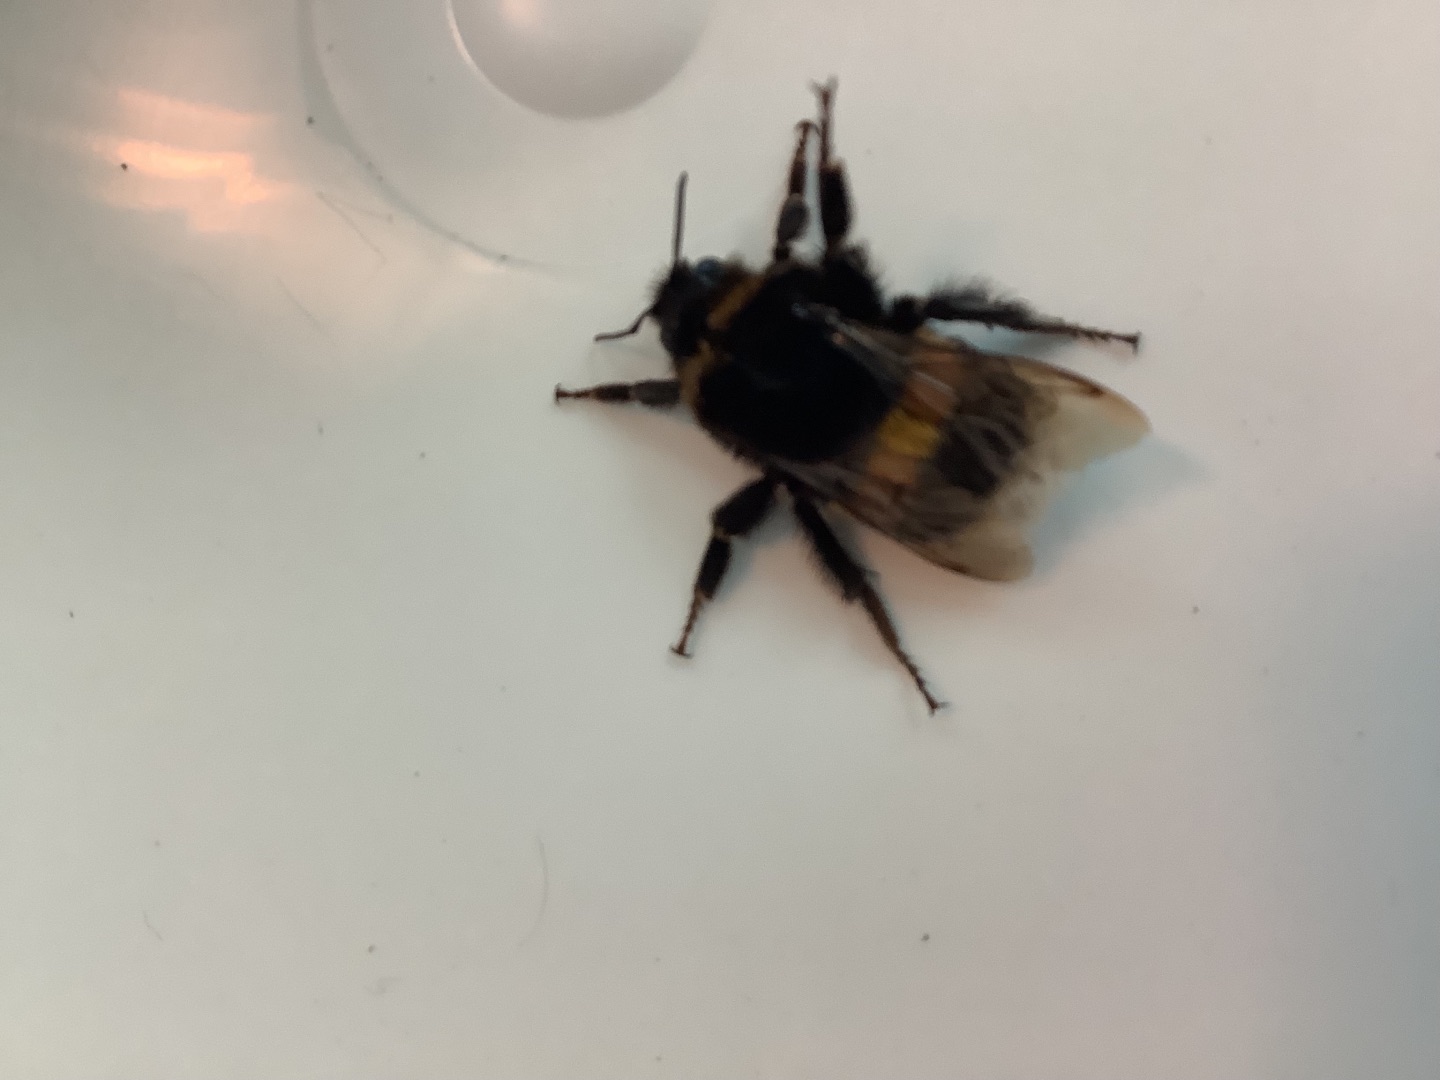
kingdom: Animalia
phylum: Arthropoda
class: Insecta
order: Hymenoptera
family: Apidae
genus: Bombus
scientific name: Bombus terrestris
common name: Mørk jordhumle
